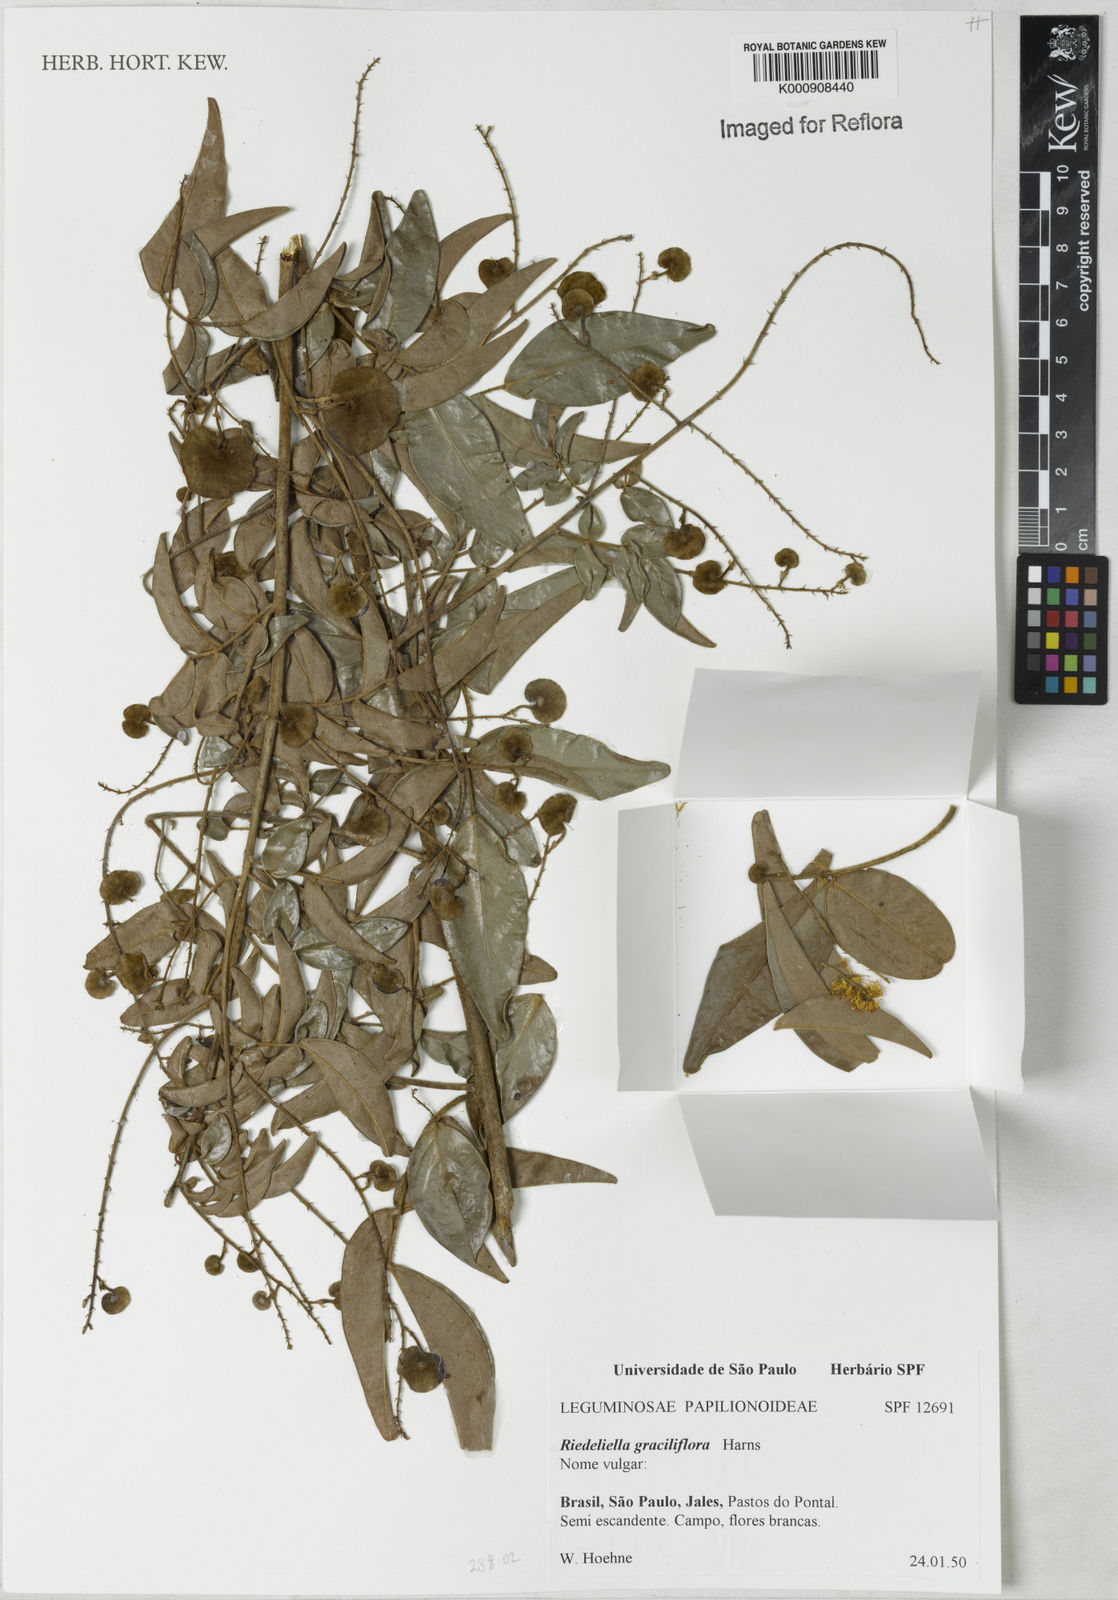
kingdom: Plantae
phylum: Tracheophyta
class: Magnoliopsida
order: Fabales
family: Fabaceae
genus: Riedeliella
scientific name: Riedeliella graciliflora
